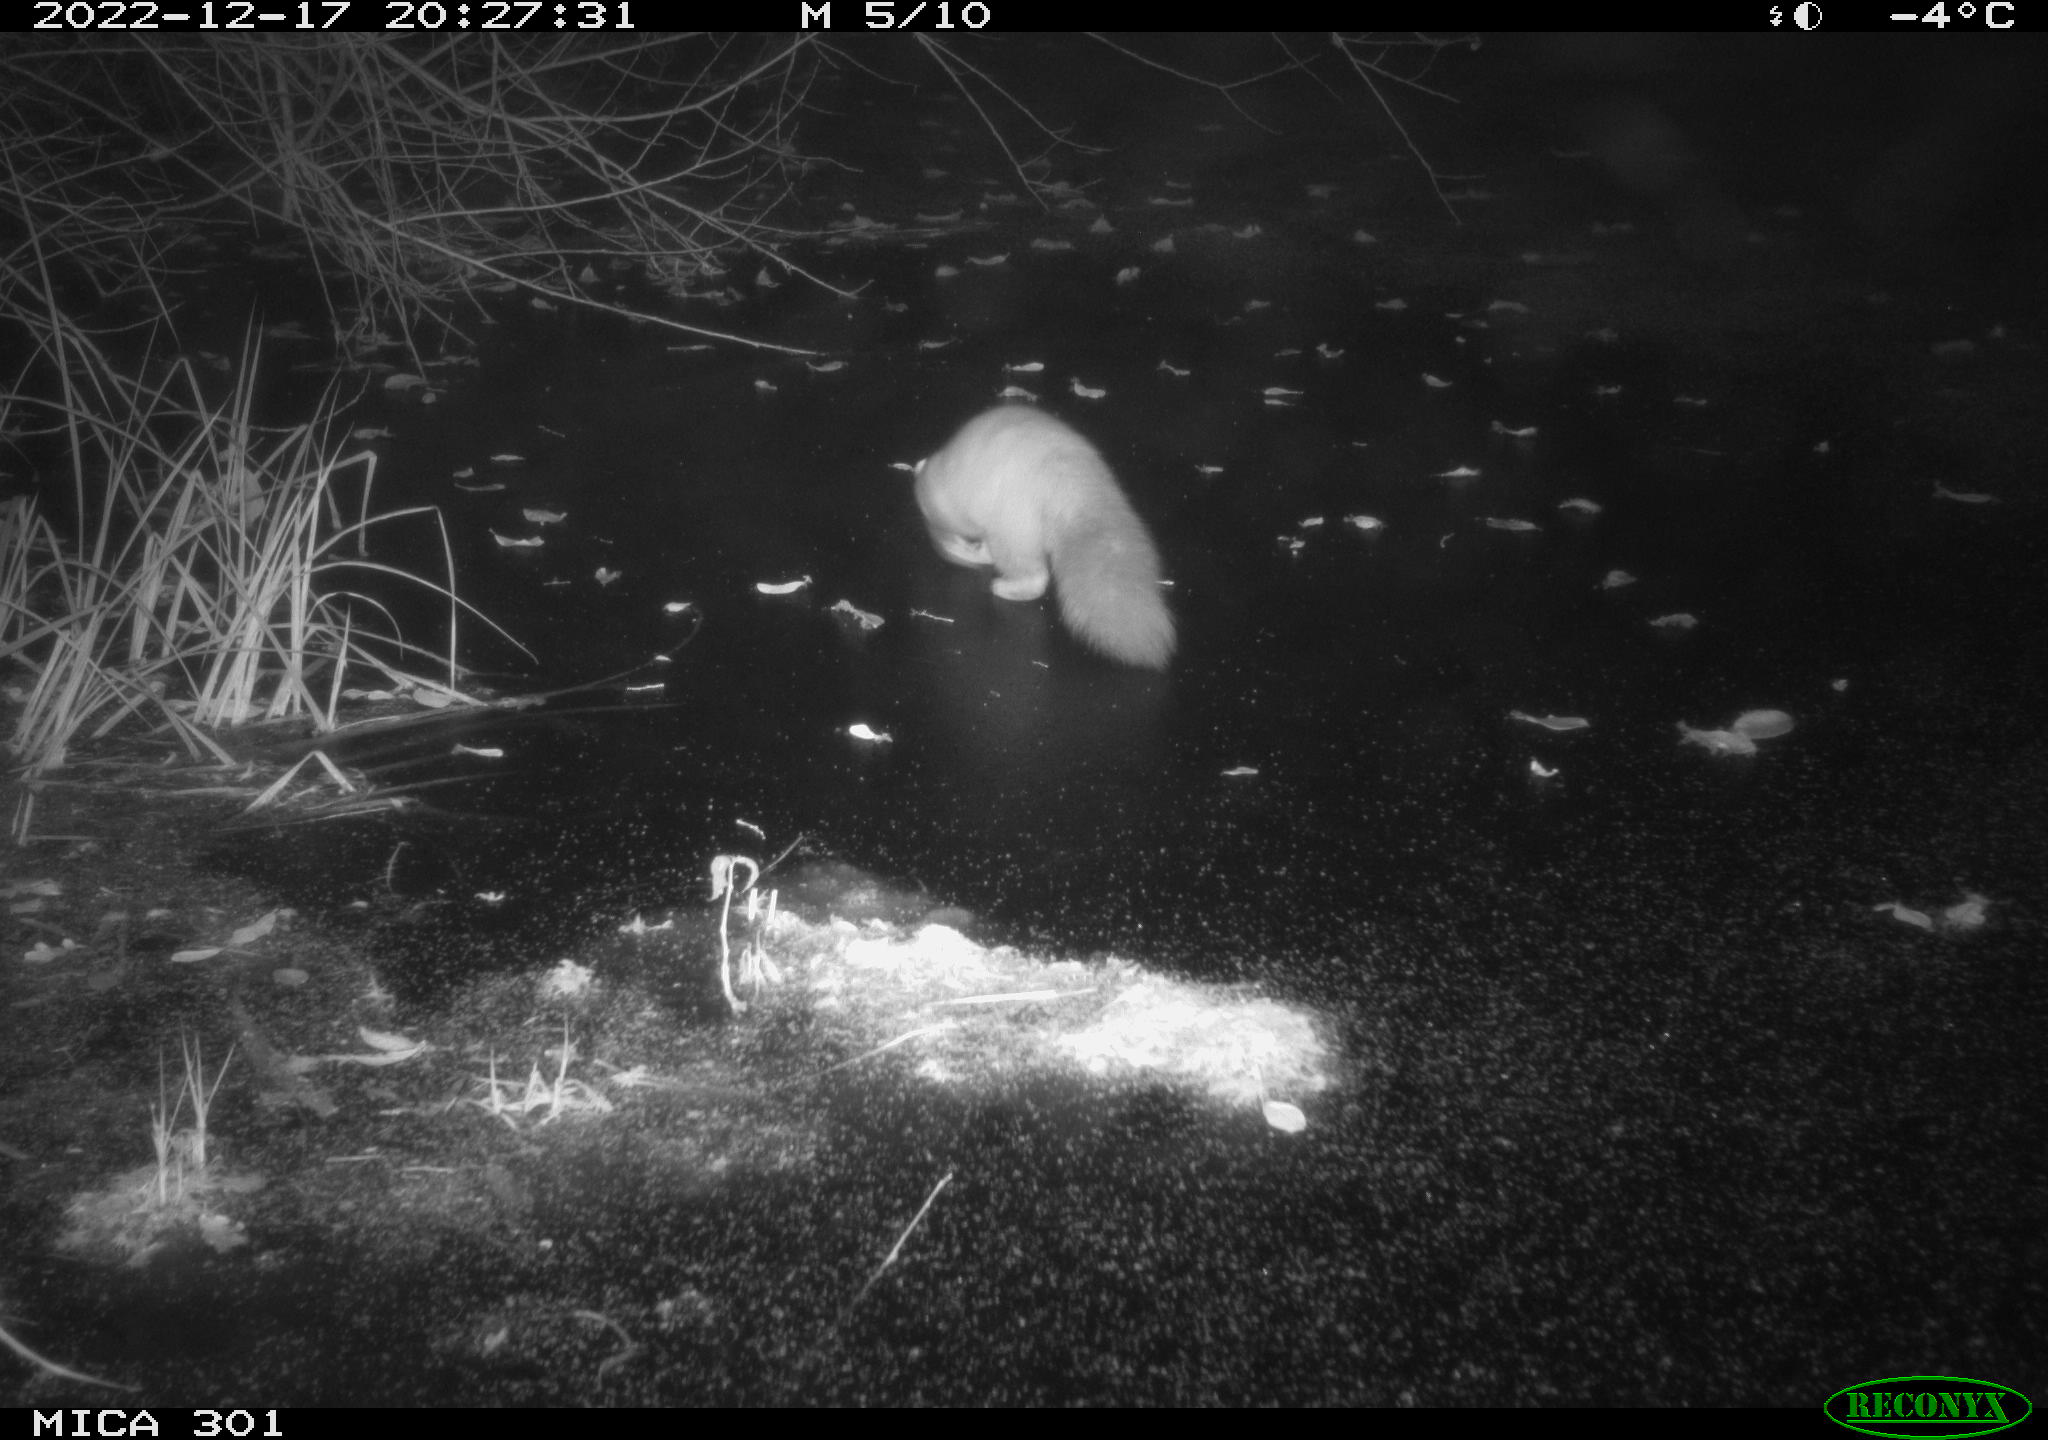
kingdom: Animalia
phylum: Chordata
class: Mammalia
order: Carnivora
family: Mustelidae
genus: Martes
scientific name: Martes foina
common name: Beech marten
